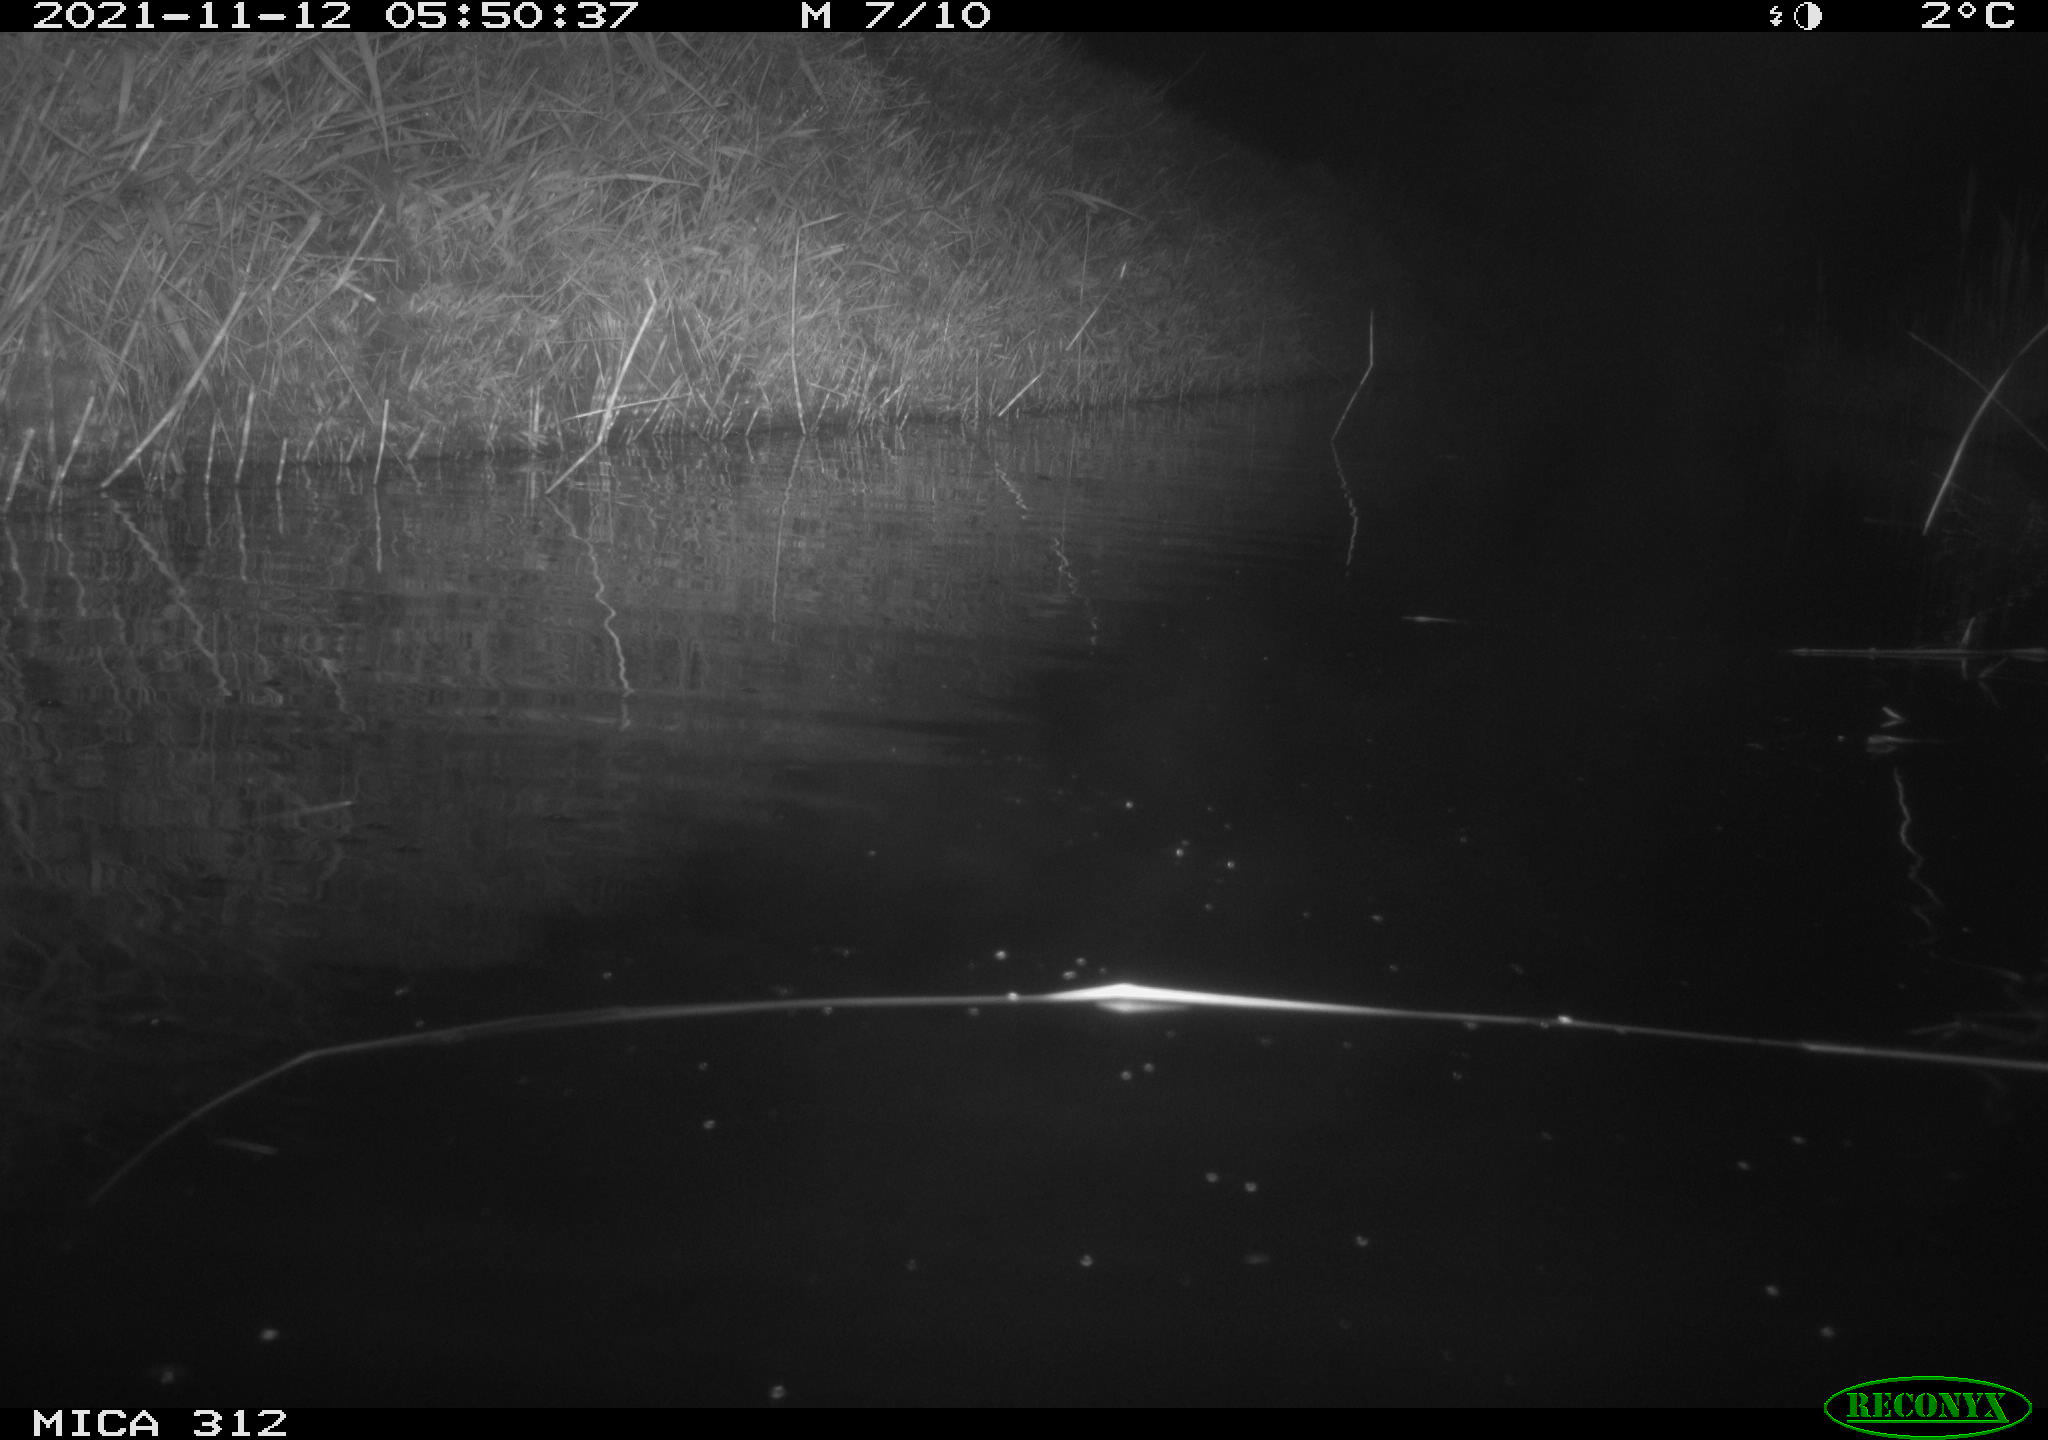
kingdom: Animalia
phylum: Chordata
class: Mammalia
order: Rodentia
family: Cricetidae
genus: Ondatra
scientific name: Ondatra zibethicus
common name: Muskrat
